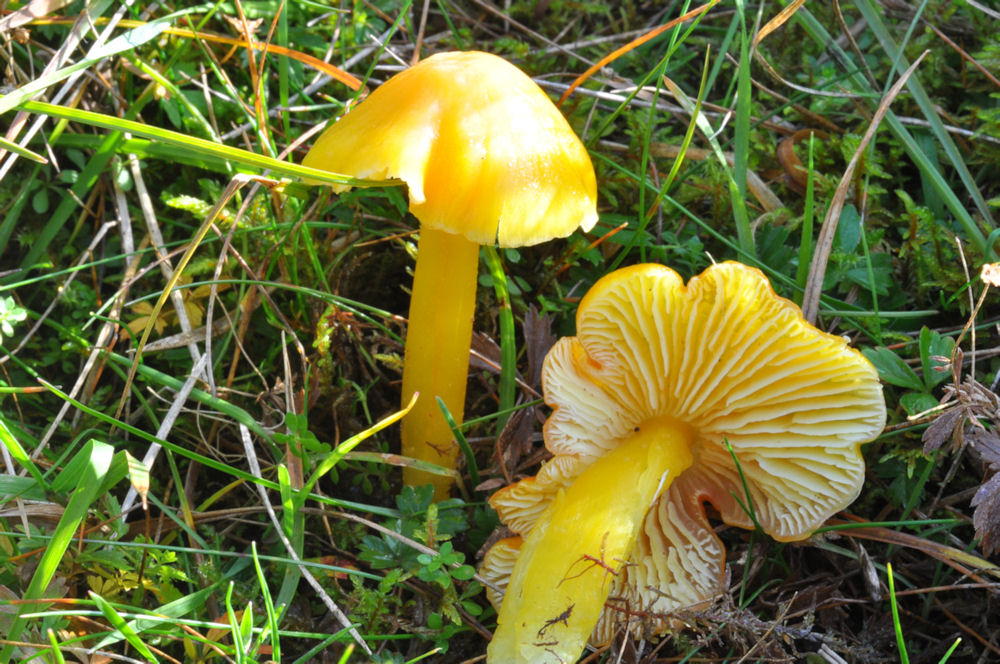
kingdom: Fungi
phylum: Basidiomycota
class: Agaricomycetes
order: Agaricales
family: Hygrophoraceae
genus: Hygrocybe
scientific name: Hygrocybe chlorophana
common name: gul vokshat
